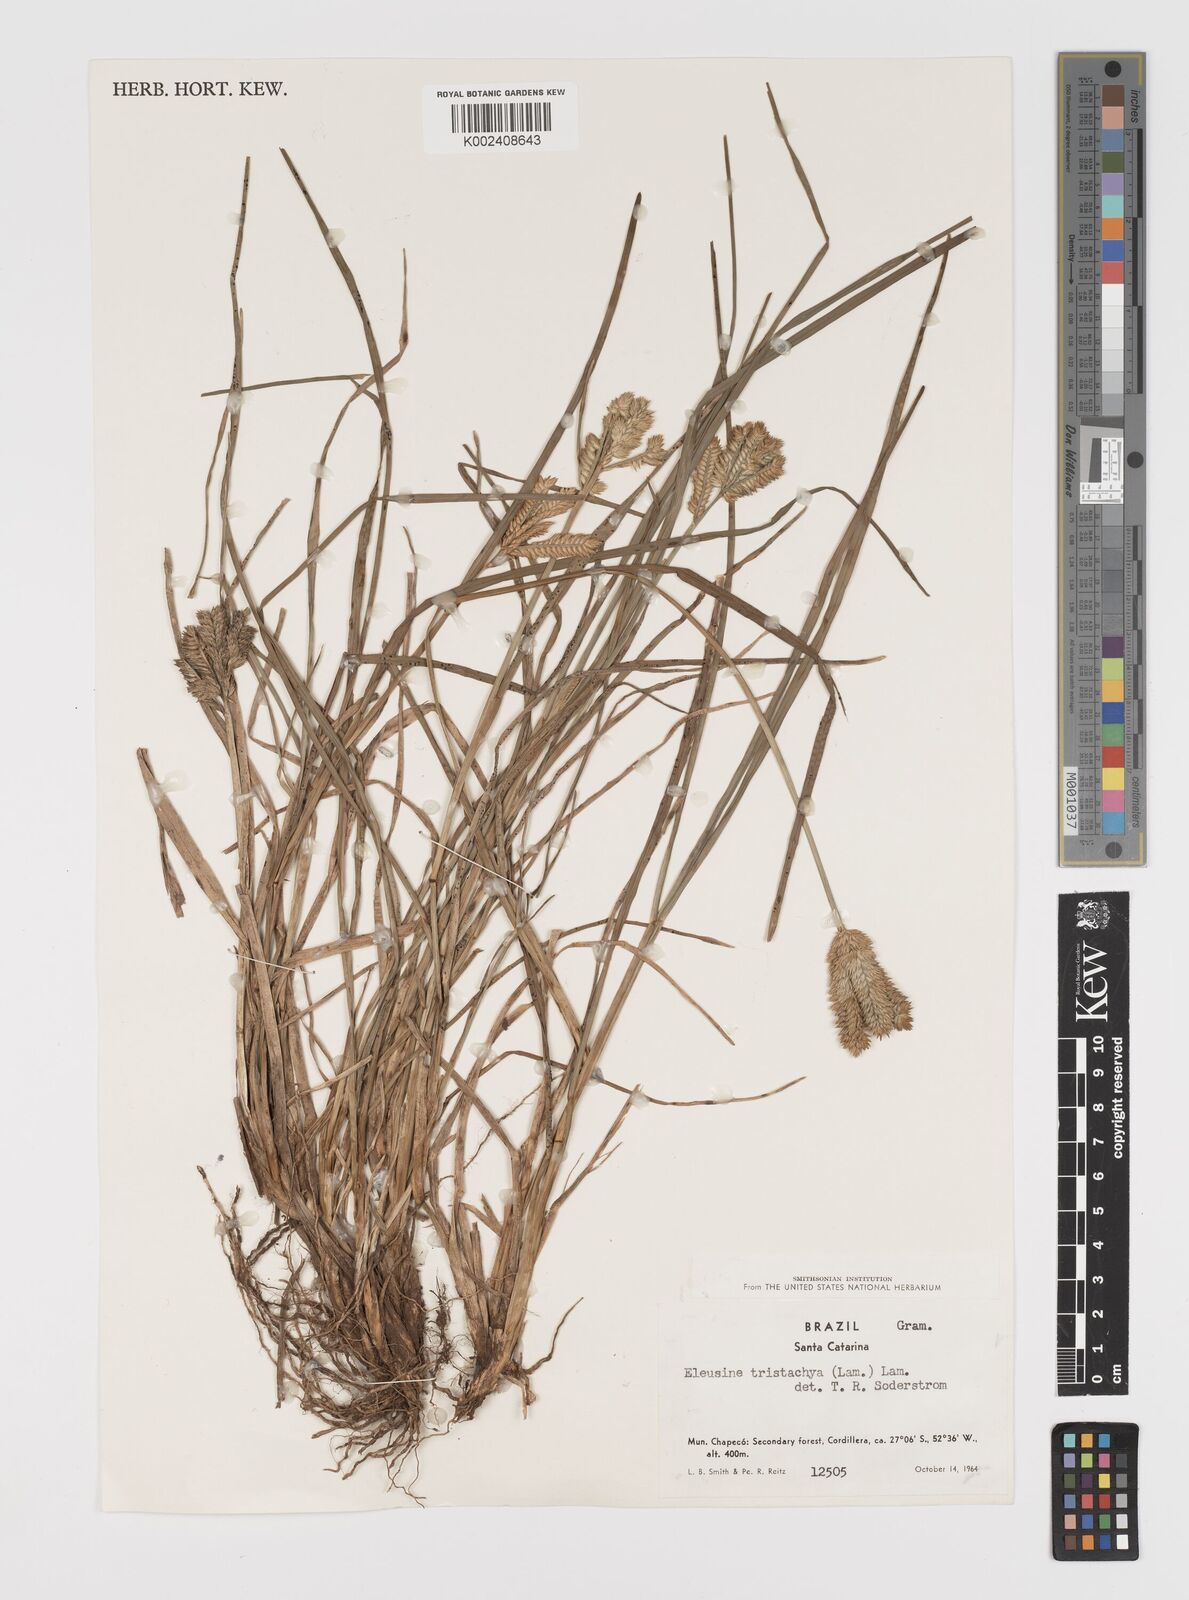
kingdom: Plantae
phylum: Tracheophyta
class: Liliopsida
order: Poales
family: Poaceae
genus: Eleusine
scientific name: Eleusine tristachya
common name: American yard-grass
